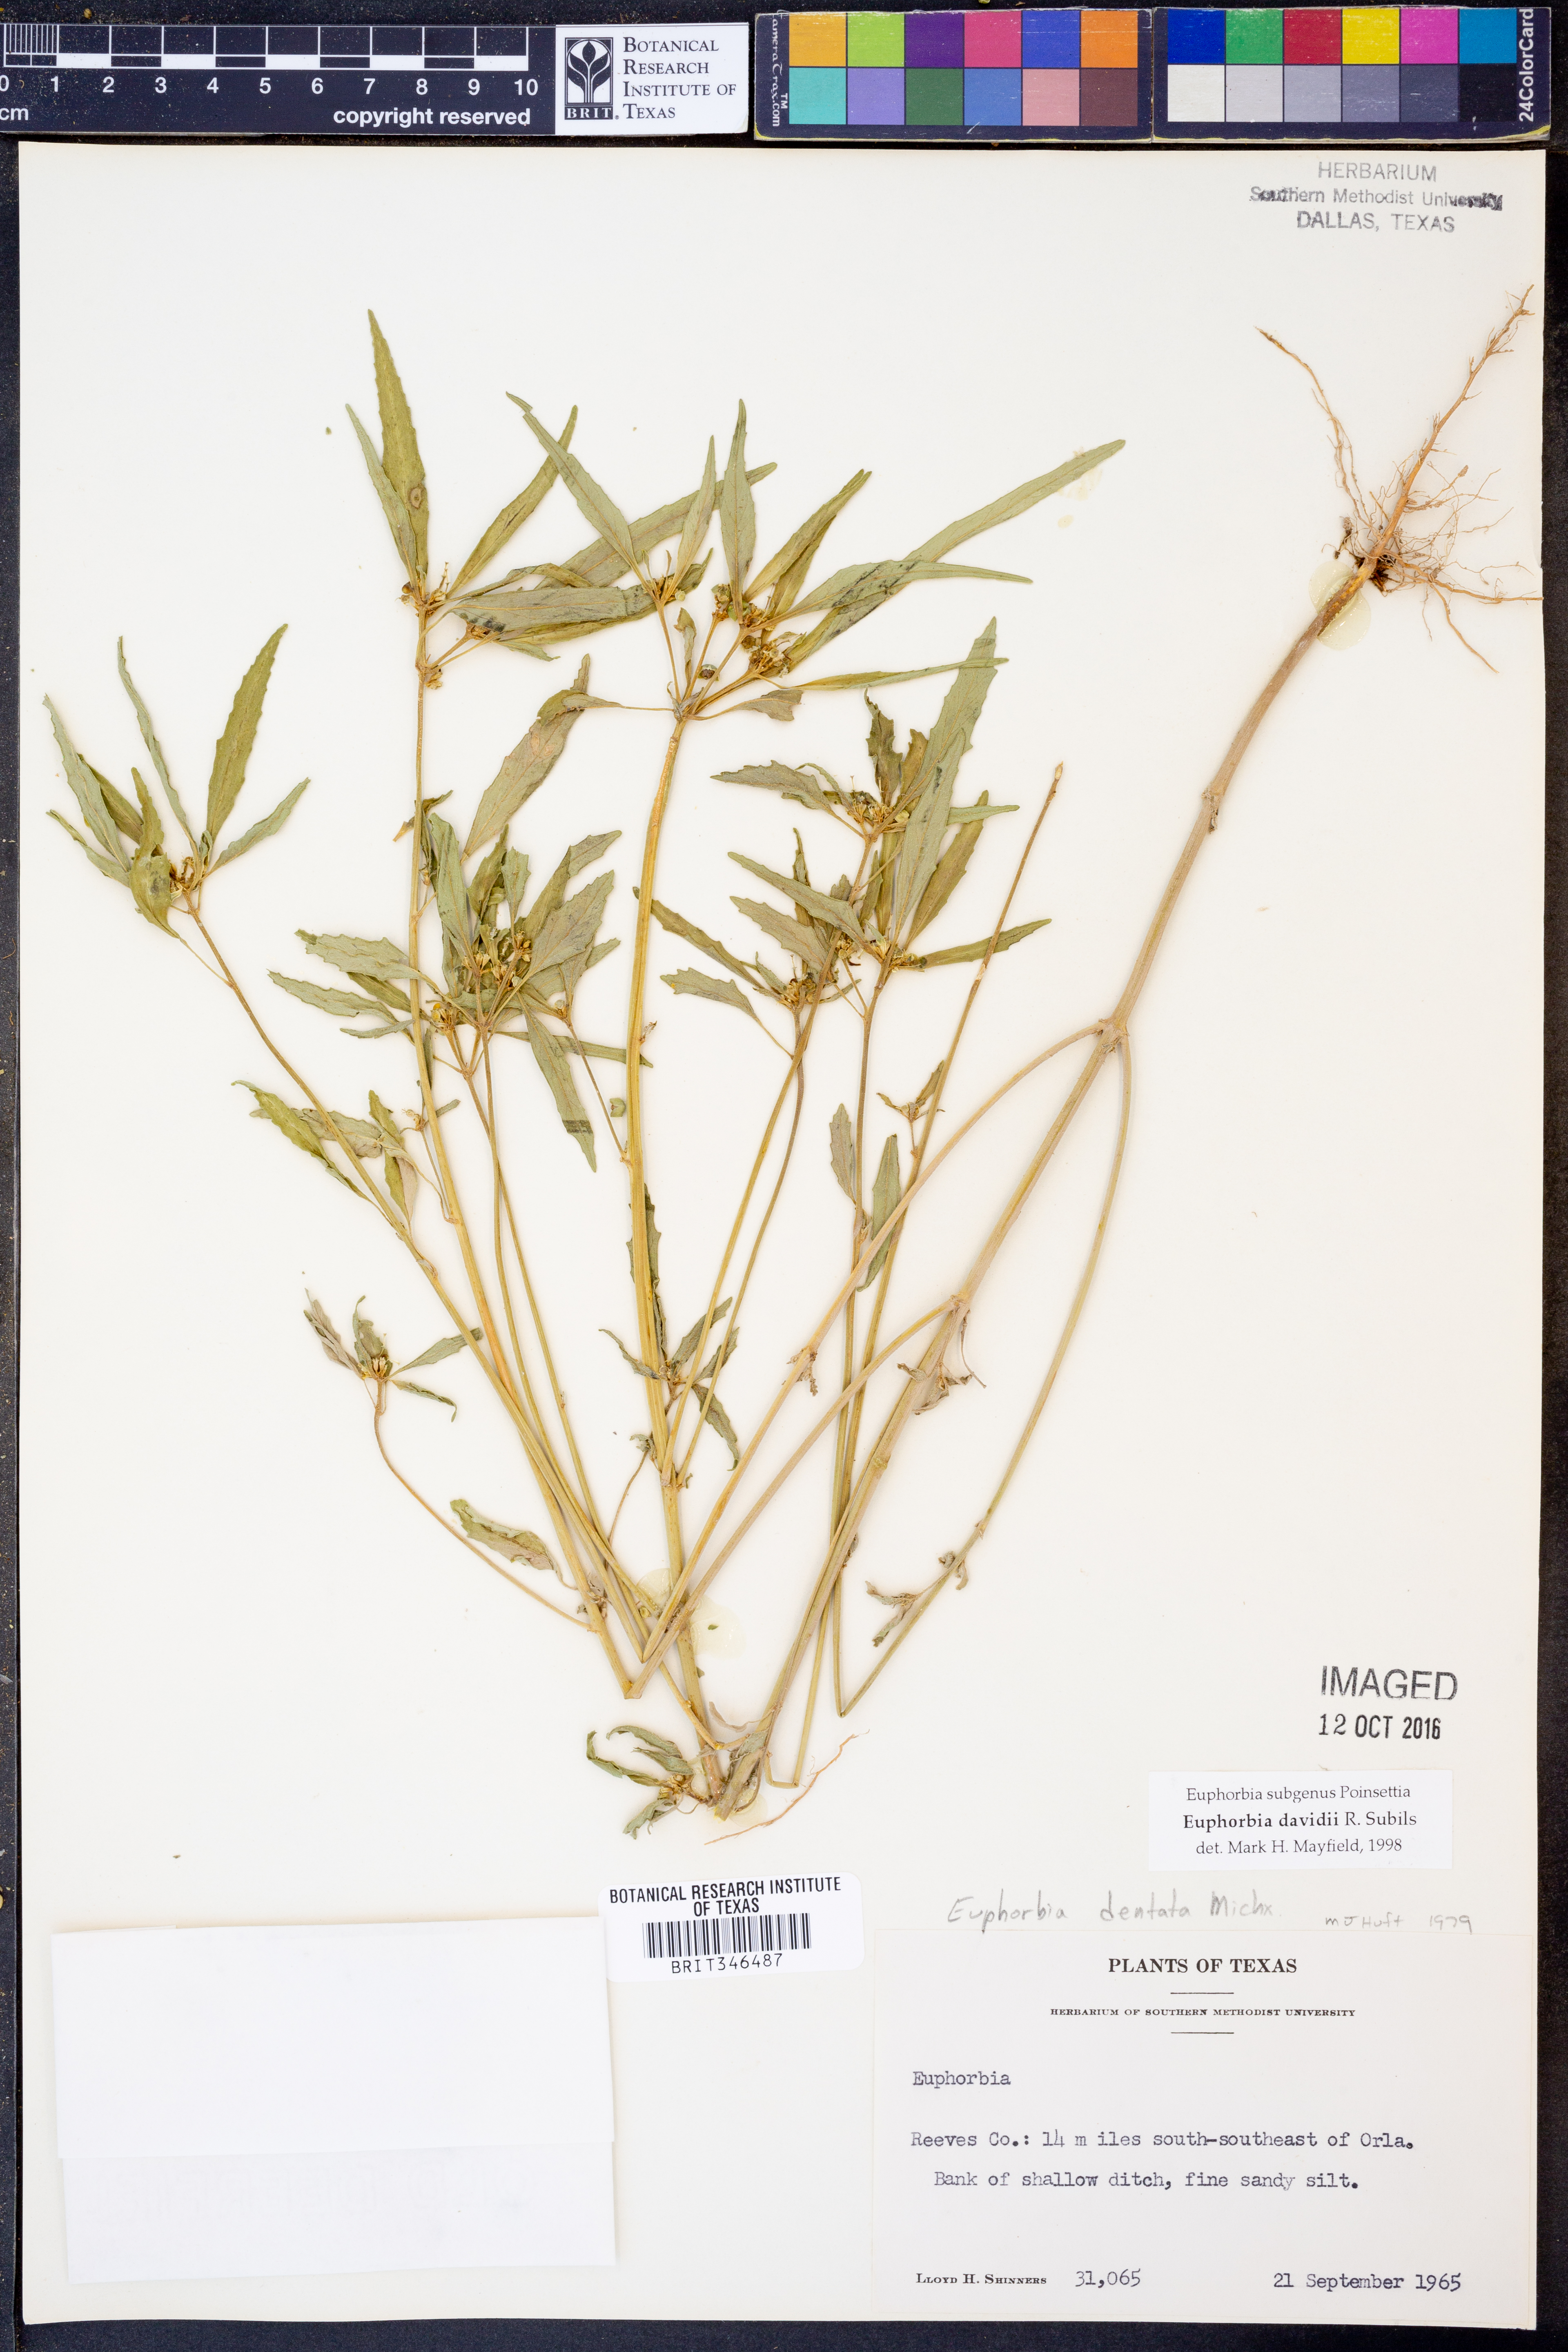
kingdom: Plantae
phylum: Tracheophyta
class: Magnoliopsida
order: Malpighiales
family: Euphorbiaceae
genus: Euphorbia
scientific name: Euphorbia davidii
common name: David's spurge
